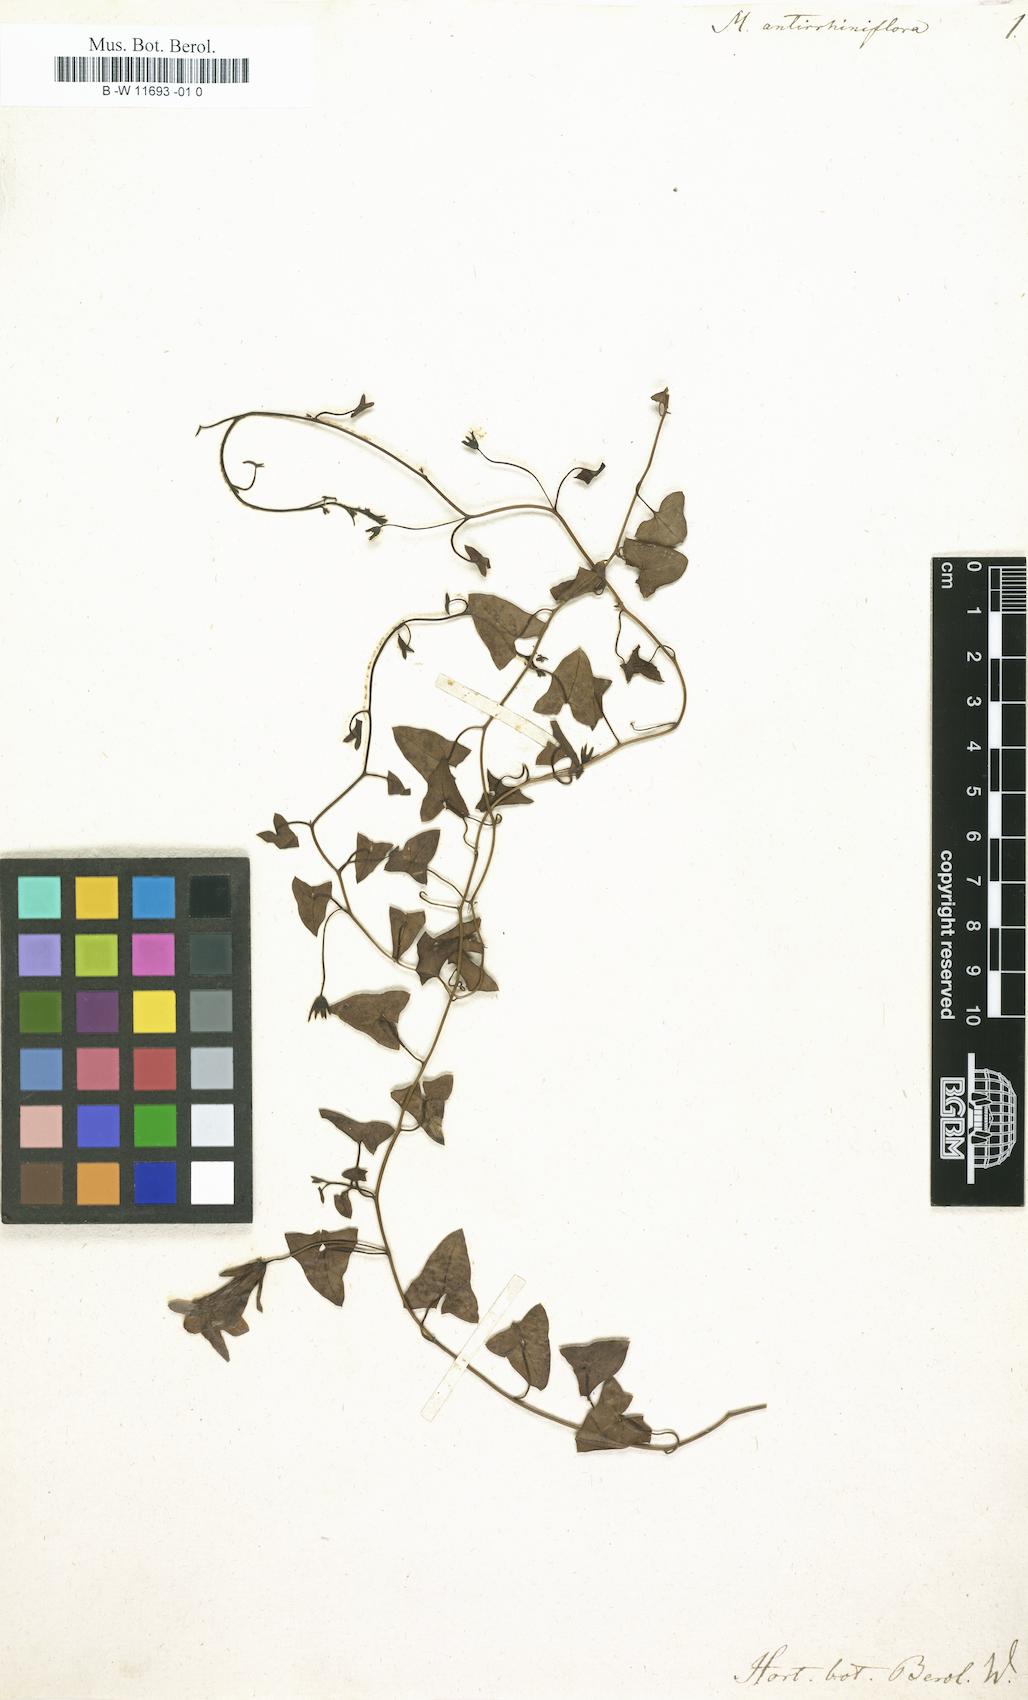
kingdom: Plantae
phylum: Tracheophyta
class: Magnoliopsida
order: Lamiales
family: Plantaginaceae
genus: Maurandella
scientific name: Maurandella antirrhiniflora
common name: Violet twining-snapdragon
